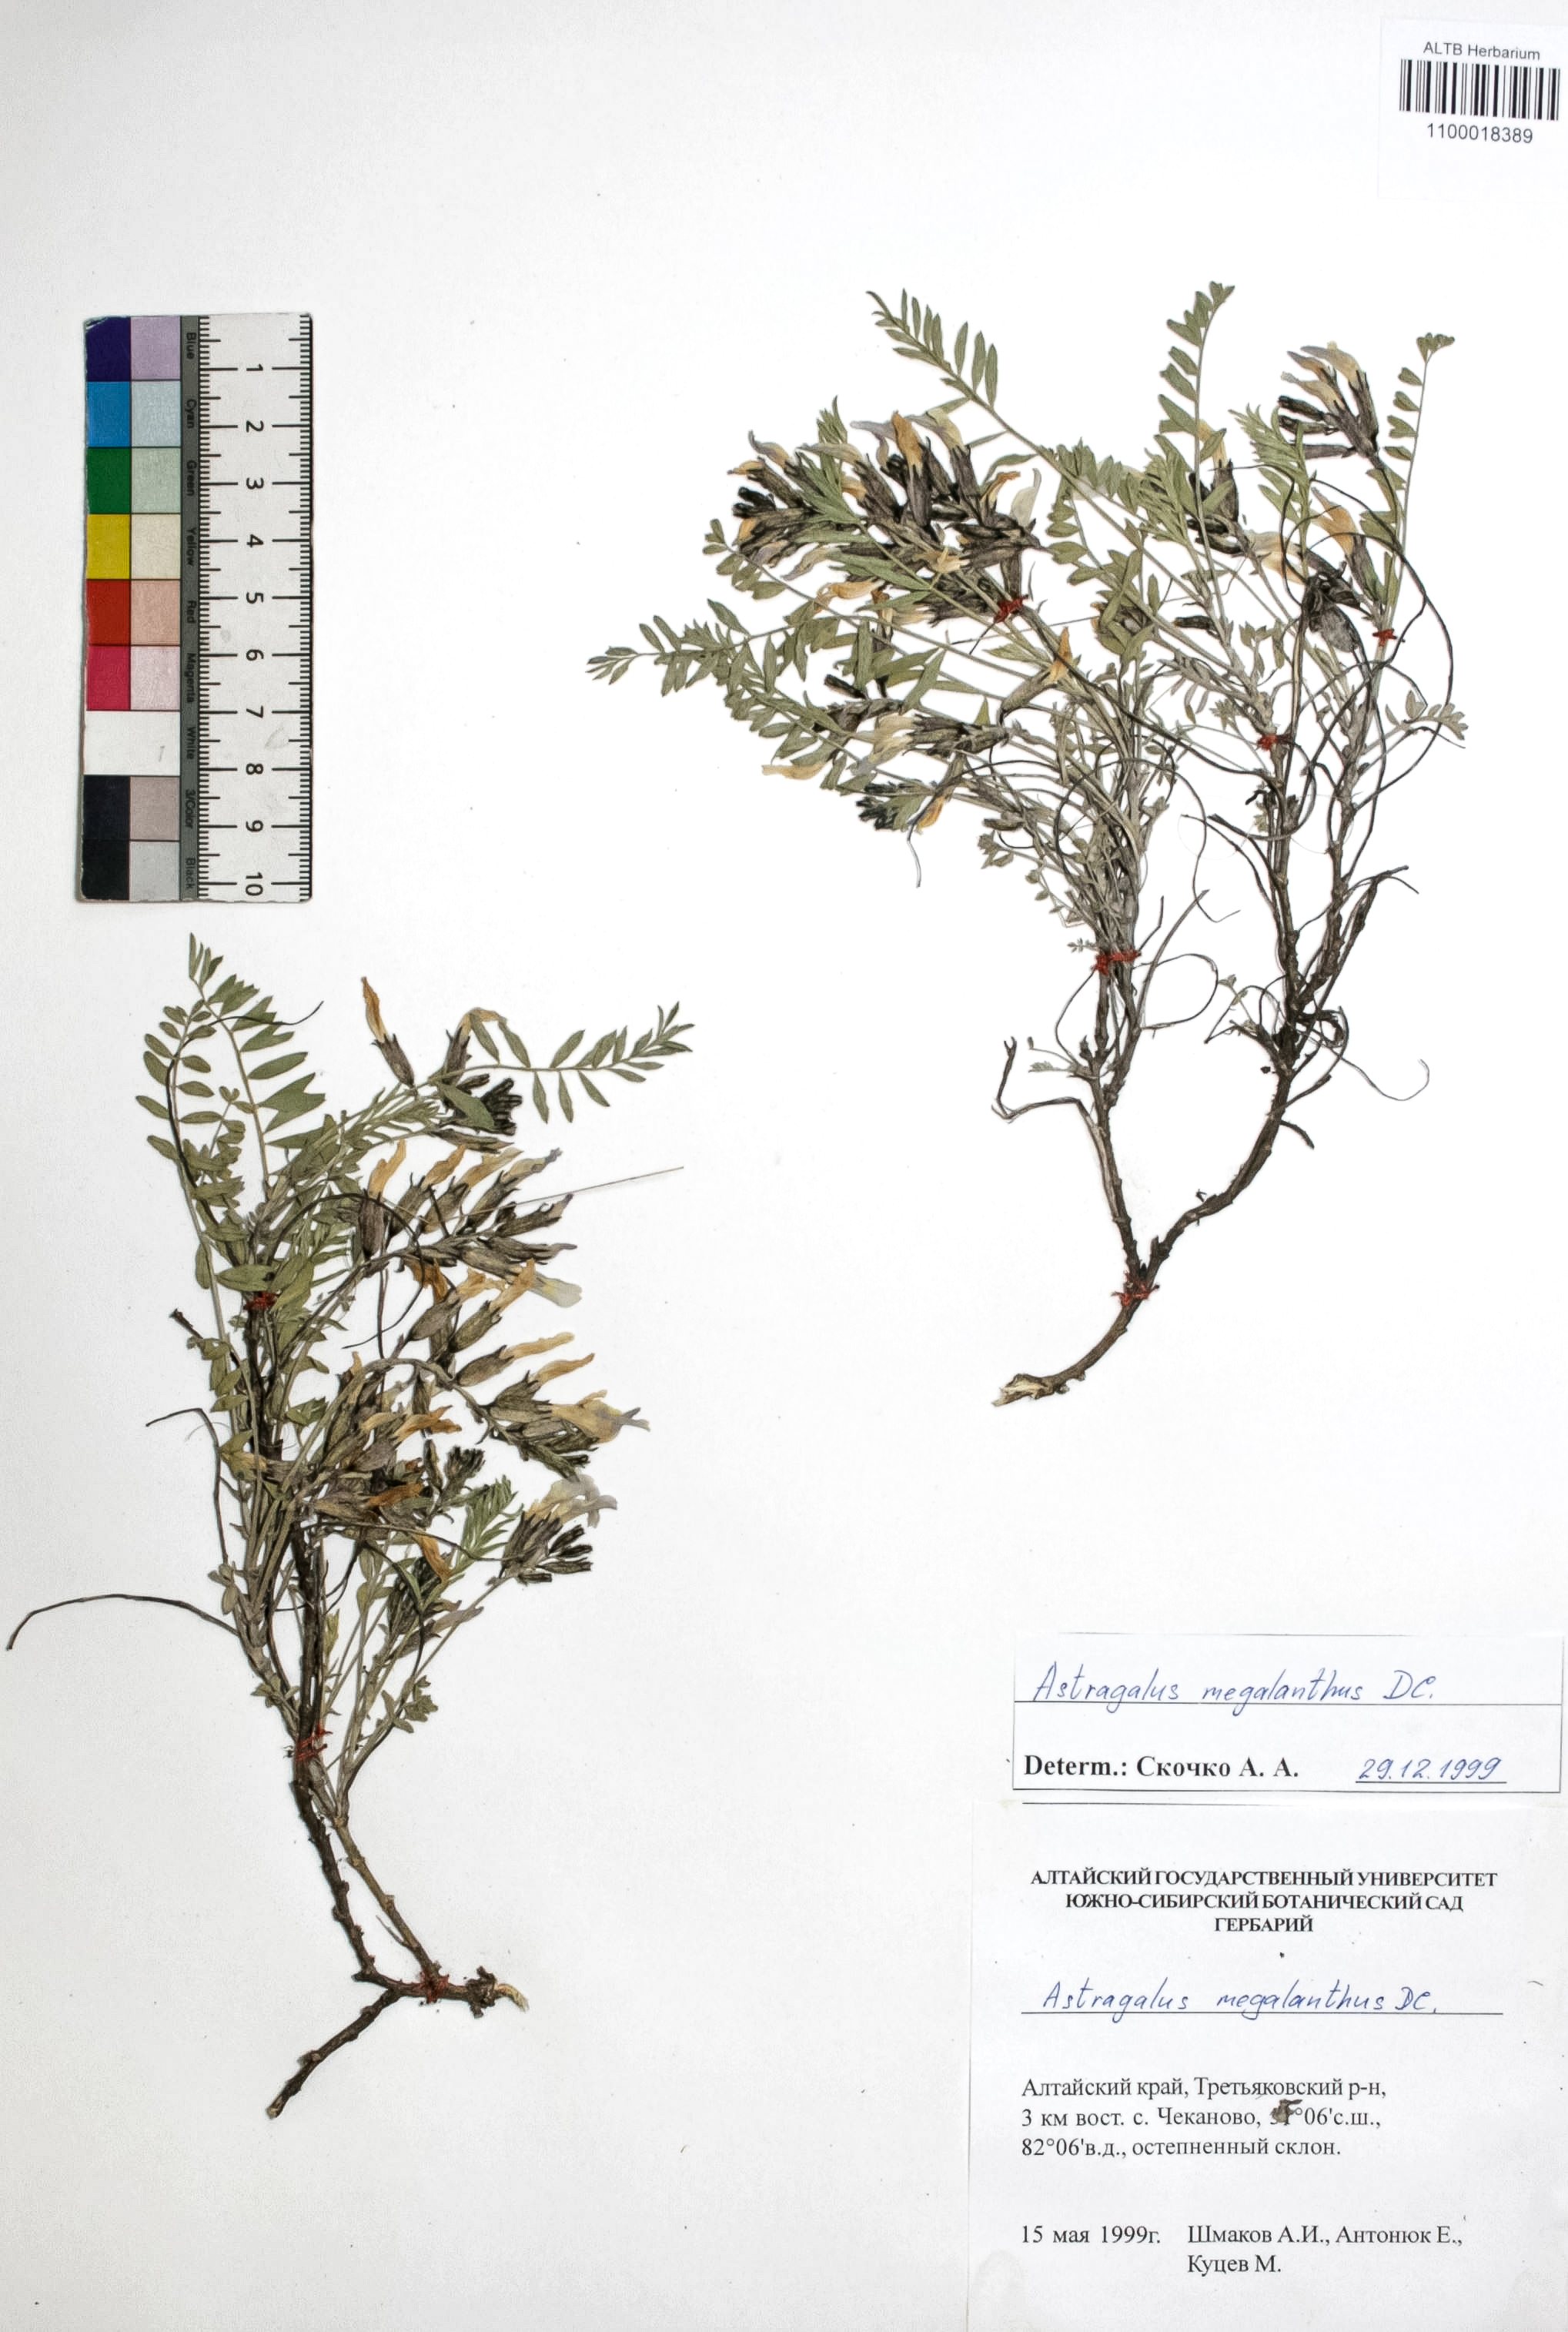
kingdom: Plantae
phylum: Tracheophyta
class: Magnoliopsida
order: Fabales
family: Fabaceae
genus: Astragalus
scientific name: Astragalus leptostachys
